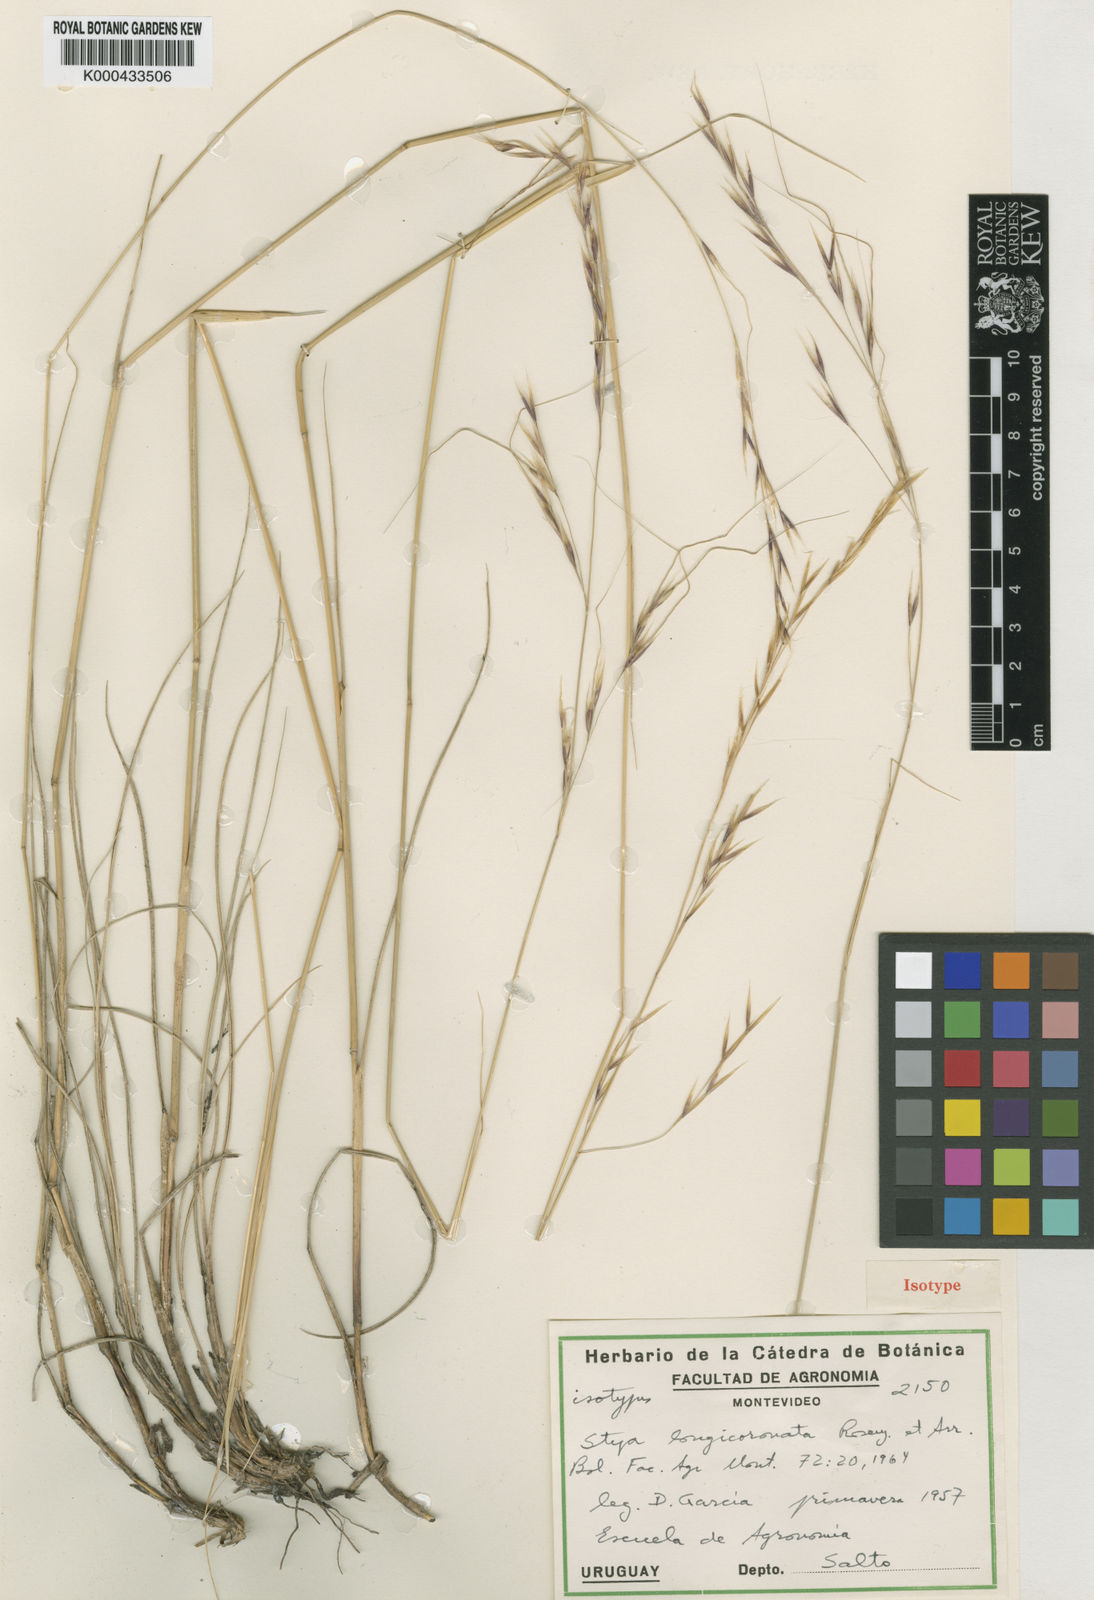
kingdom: Plantae
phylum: Tracheophyta
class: Liliopsida
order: Poales
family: Poaceae
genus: Nassella
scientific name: Nassella longicoronata
